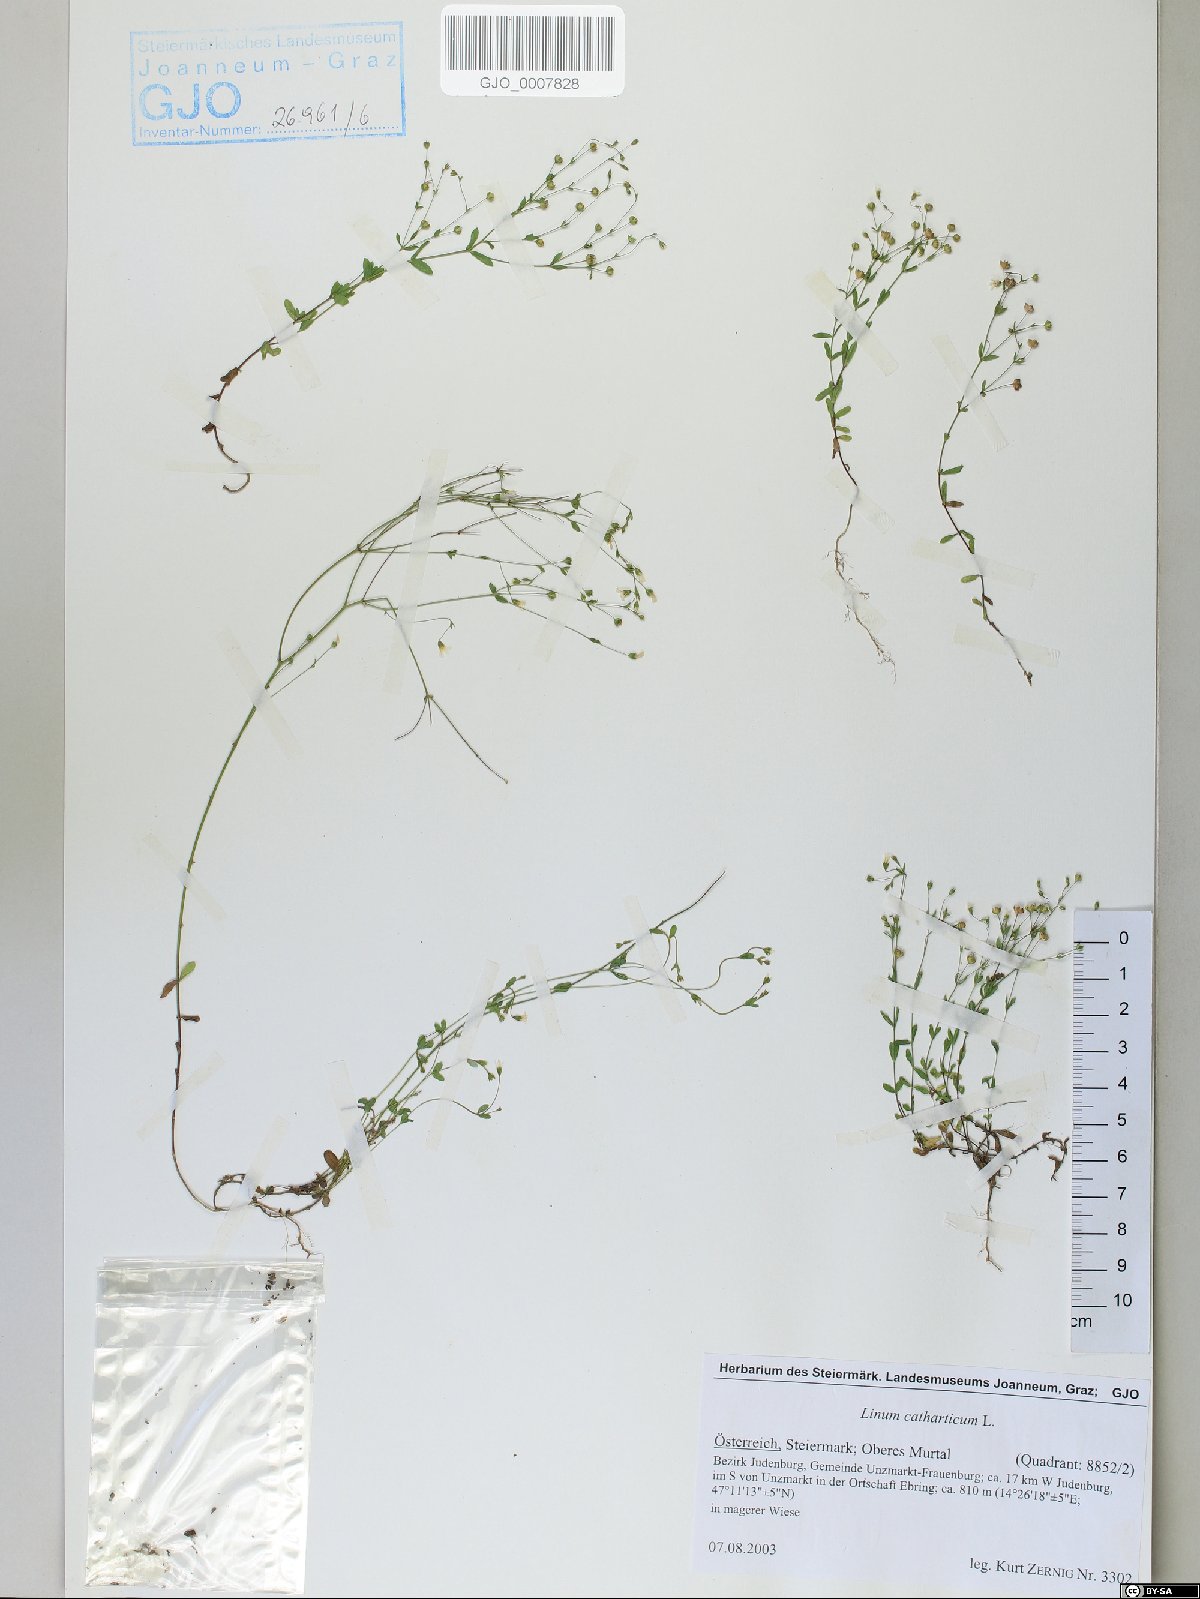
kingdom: Plantae
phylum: Tracheophyta
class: Magnoliopsida
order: Malpighiales
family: Linaceae
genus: Linum
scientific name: Linum catharticum
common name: Fairy flax
